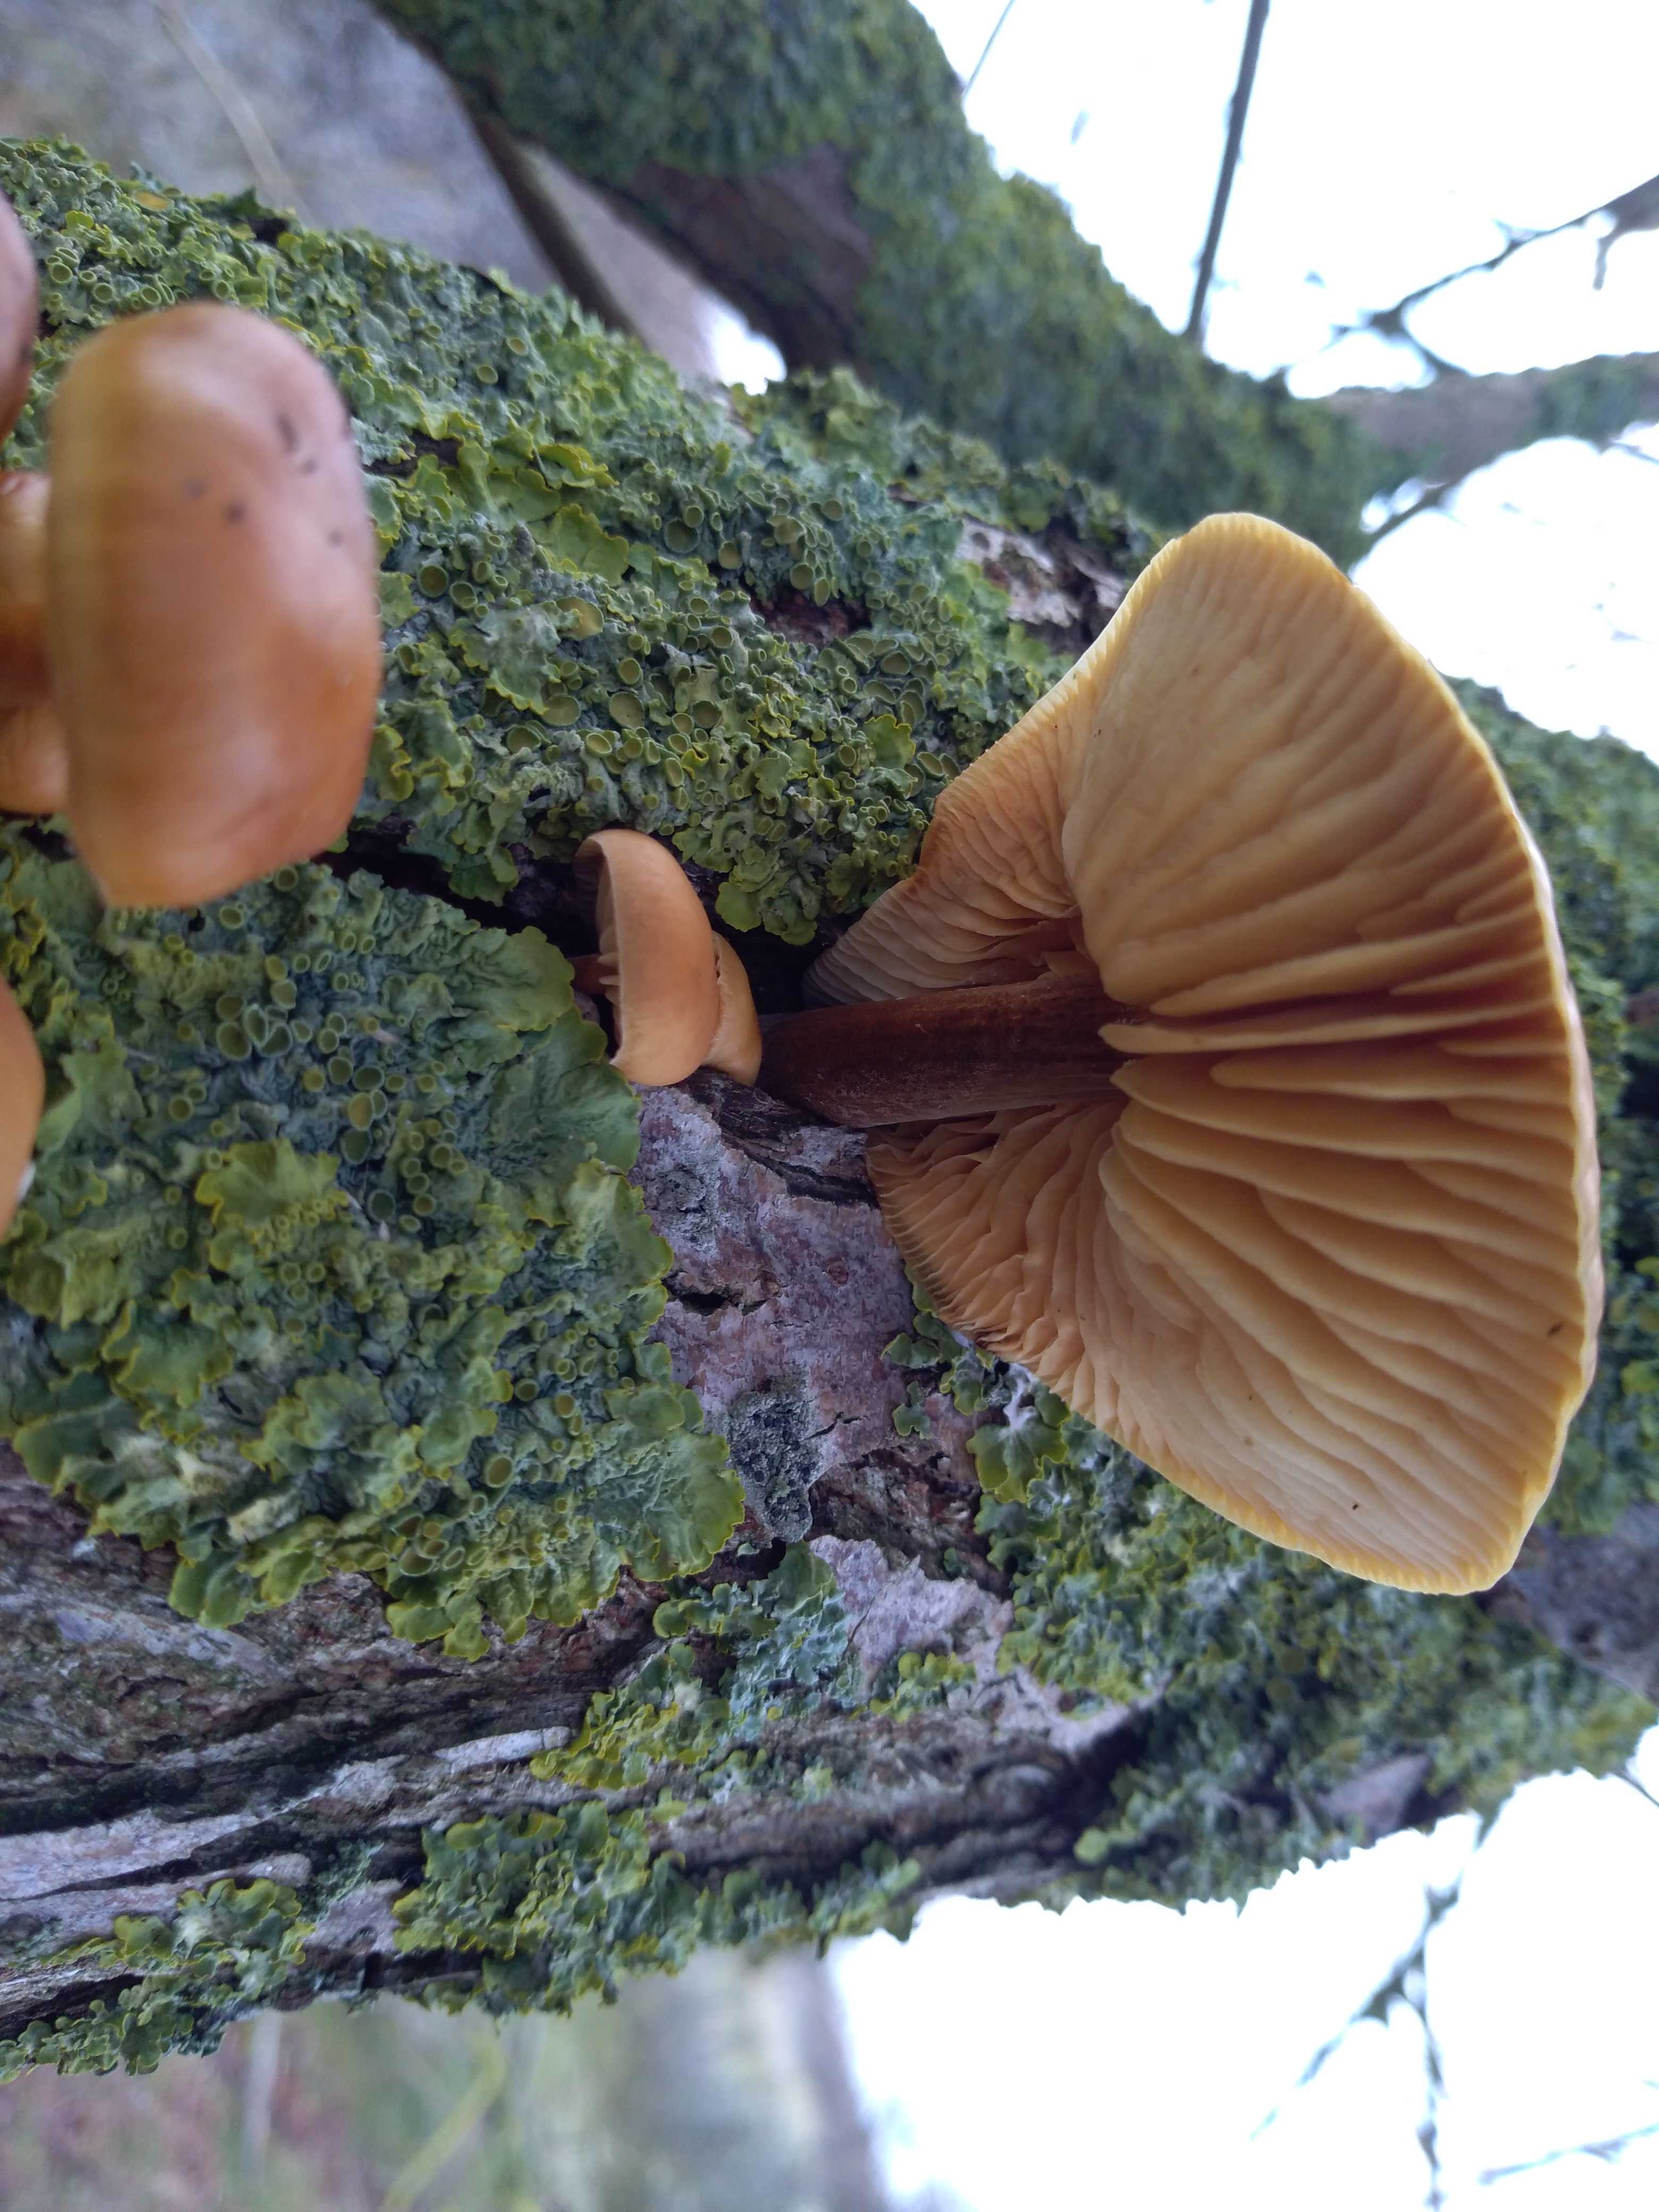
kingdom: Fungi
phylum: Basidiomycota
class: Agaricomycetes
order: Agaricales
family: Physalacriaceae
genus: Flammulina
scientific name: Flammulina
